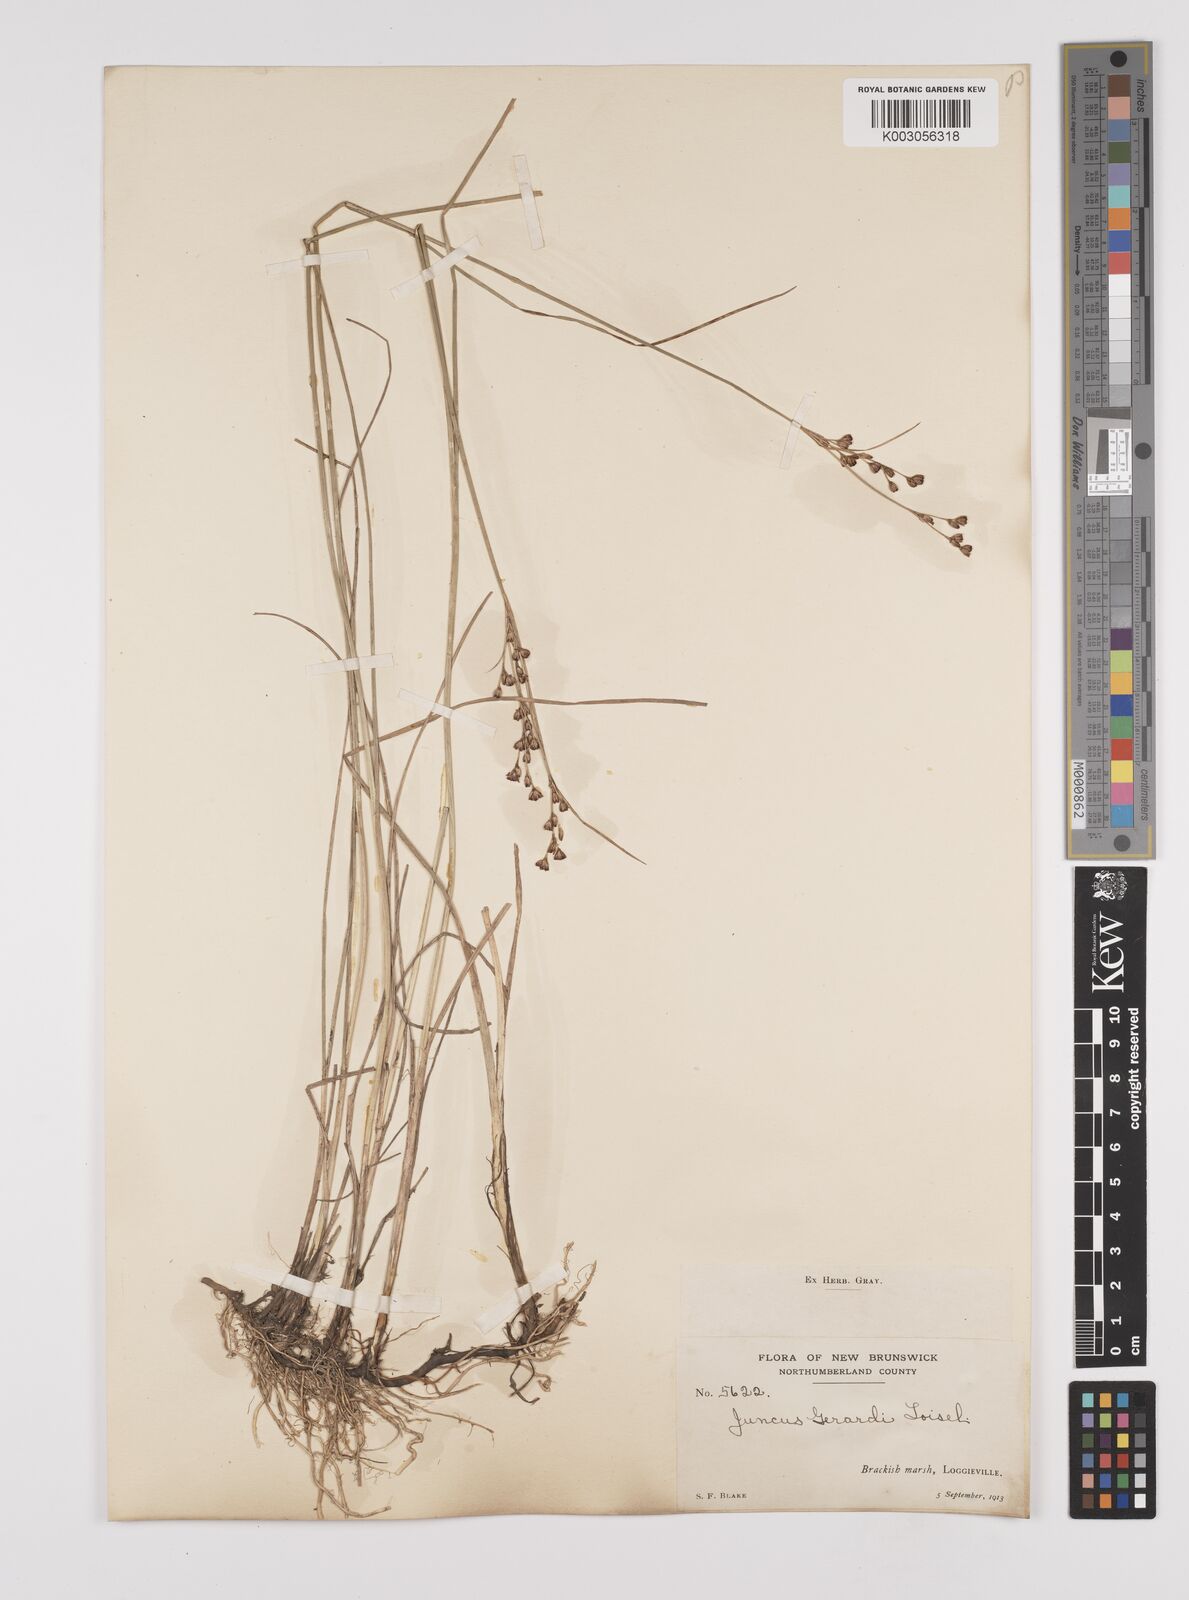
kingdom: Plantae
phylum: Tracheophyta
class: Liliopsida
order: Poales
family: Juncaceae
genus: Juncus
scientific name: Juncus gerardi
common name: Saltmarsh rush
